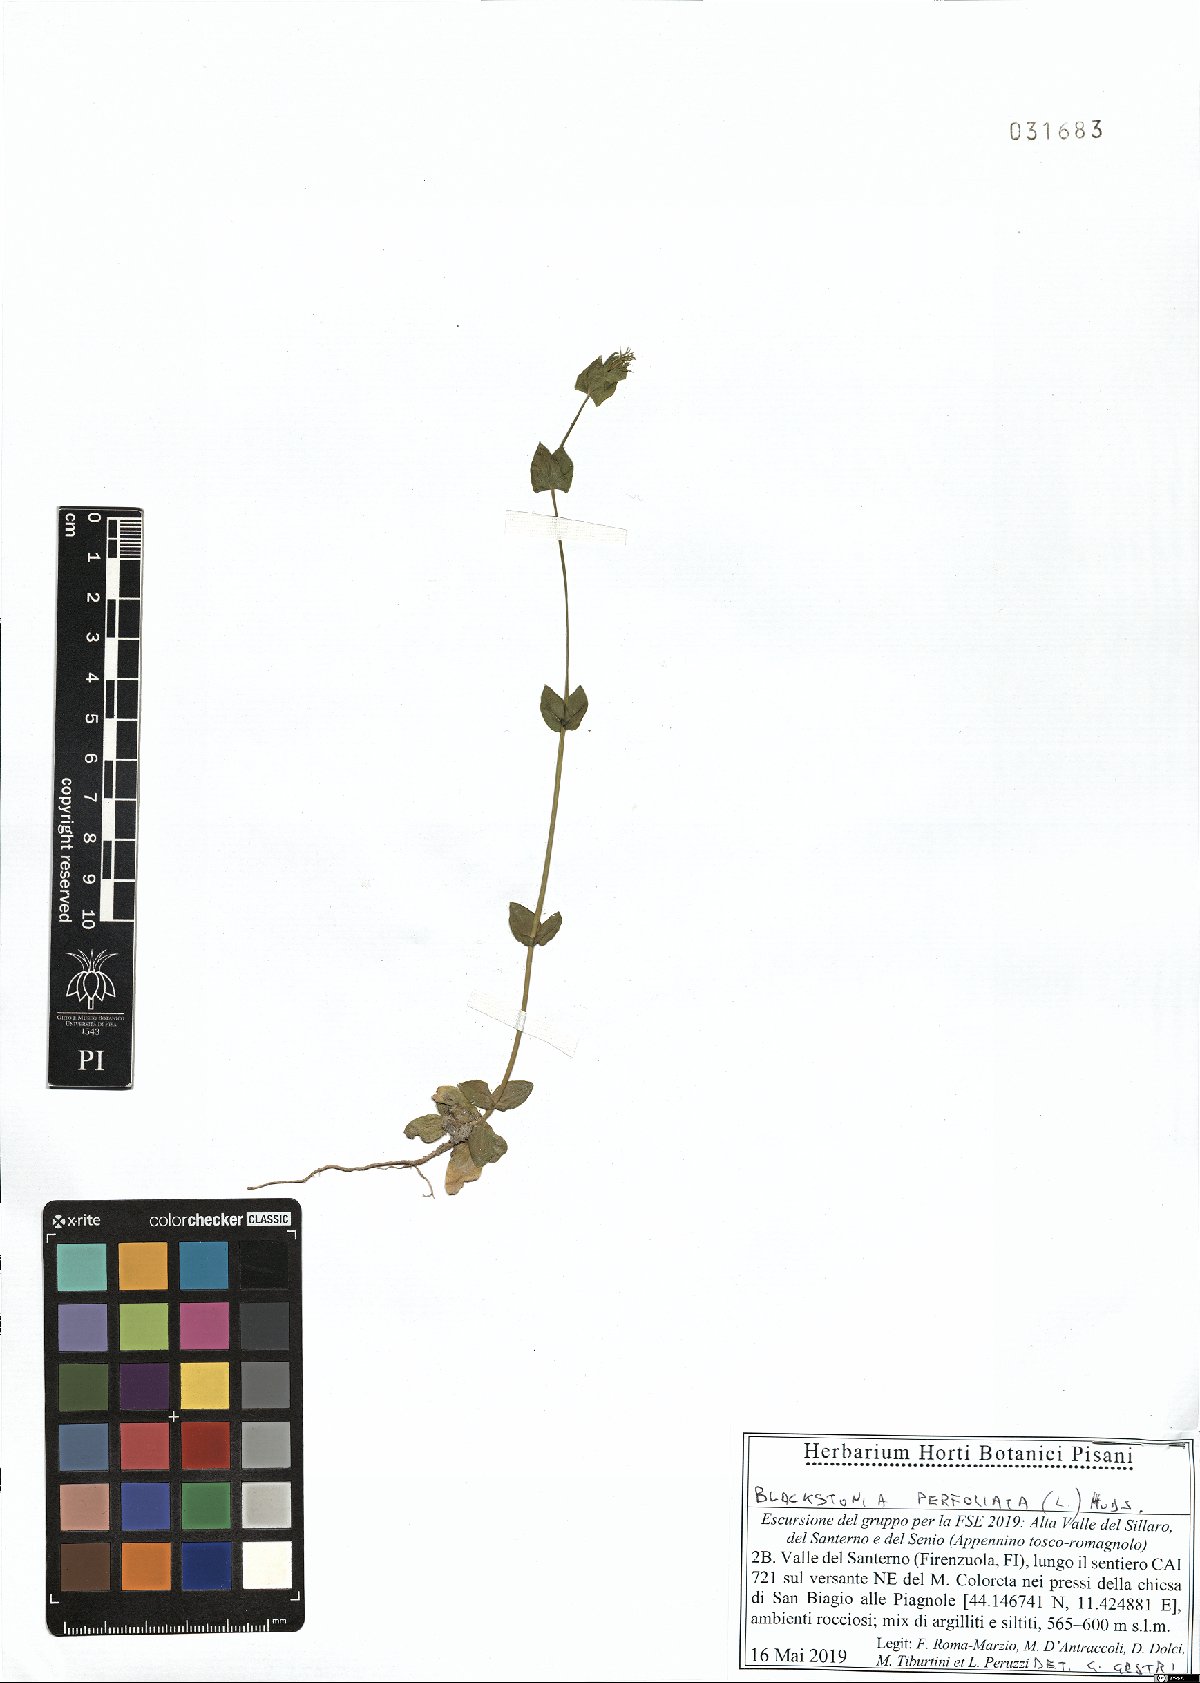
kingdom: Plantae
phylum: Tracheophyta
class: Magnoliopsida
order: Gentianales
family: Gentianaceae
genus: Blackstonia
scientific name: Blackstonia perfoliata
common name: Yellow-wort
